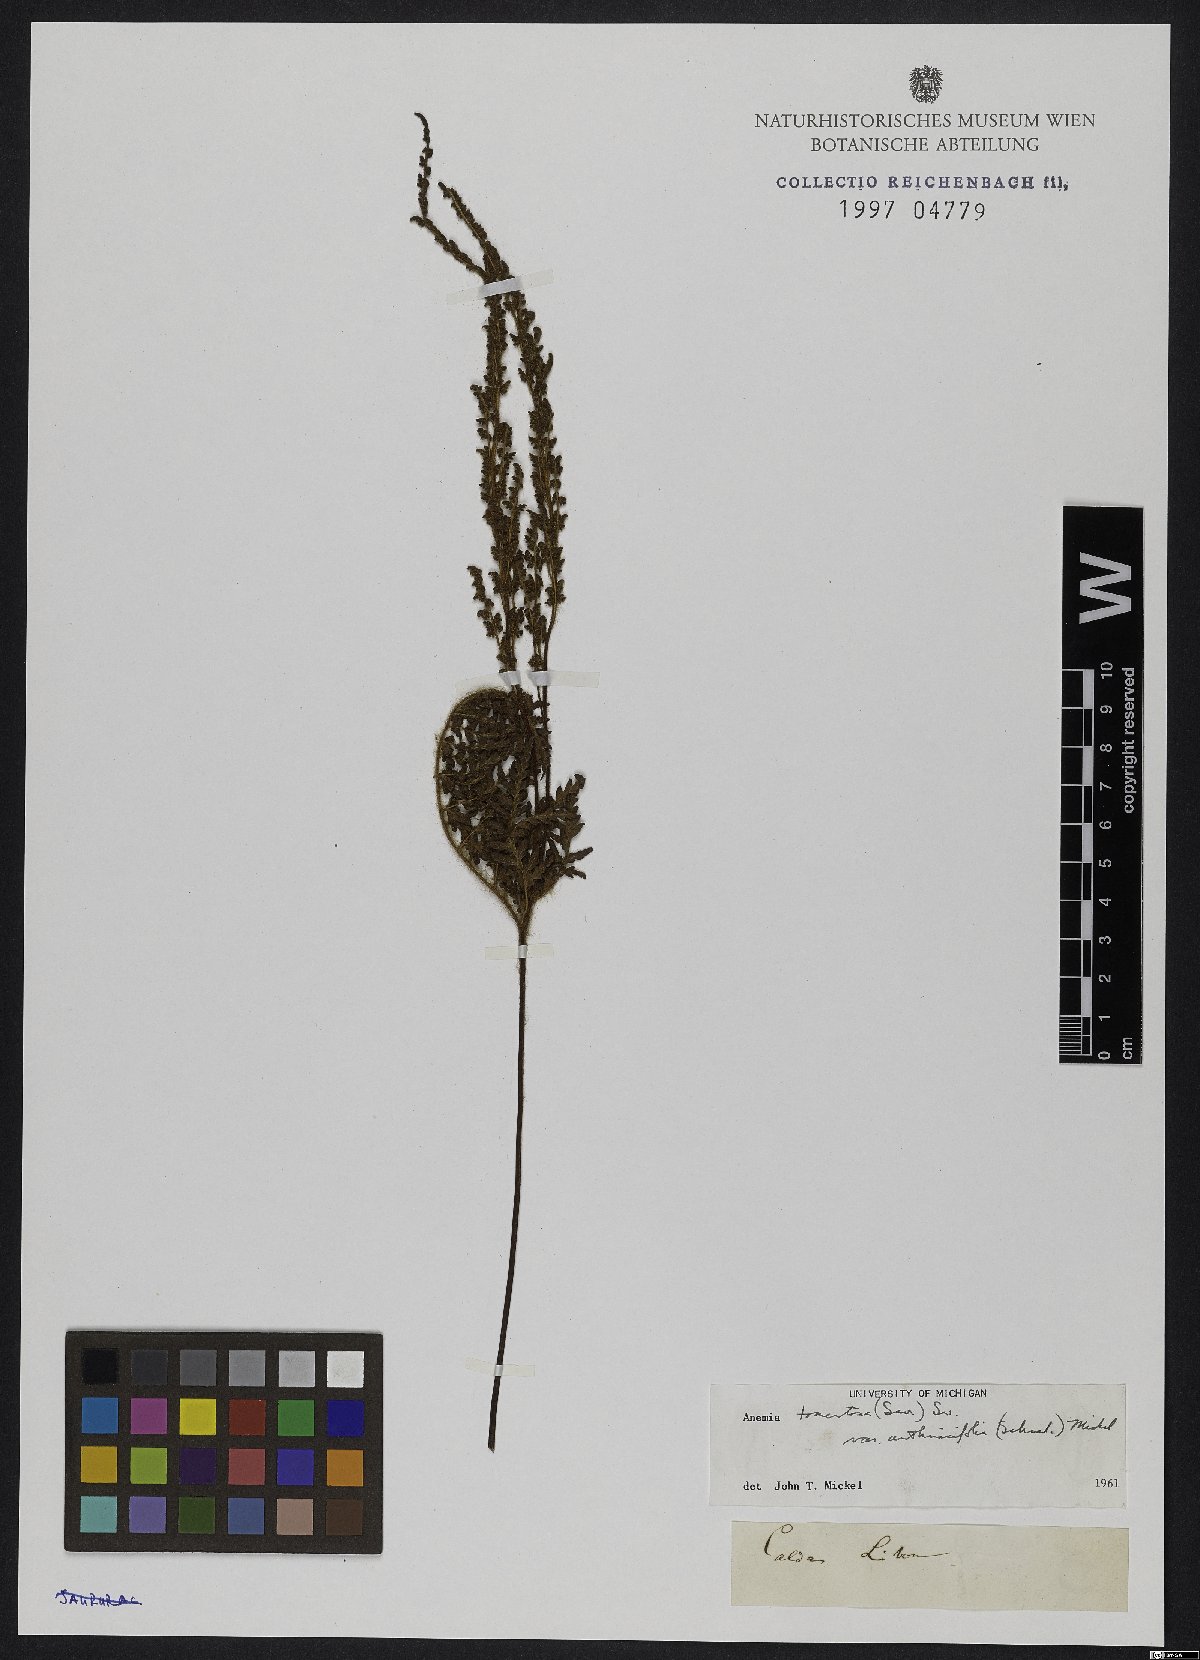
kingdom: Plantae
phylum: Tracheophyta
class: Polypodiopsida
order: Schizaeales
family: Anemiaceae
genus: Anemia
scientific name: Anemia tomentosa
